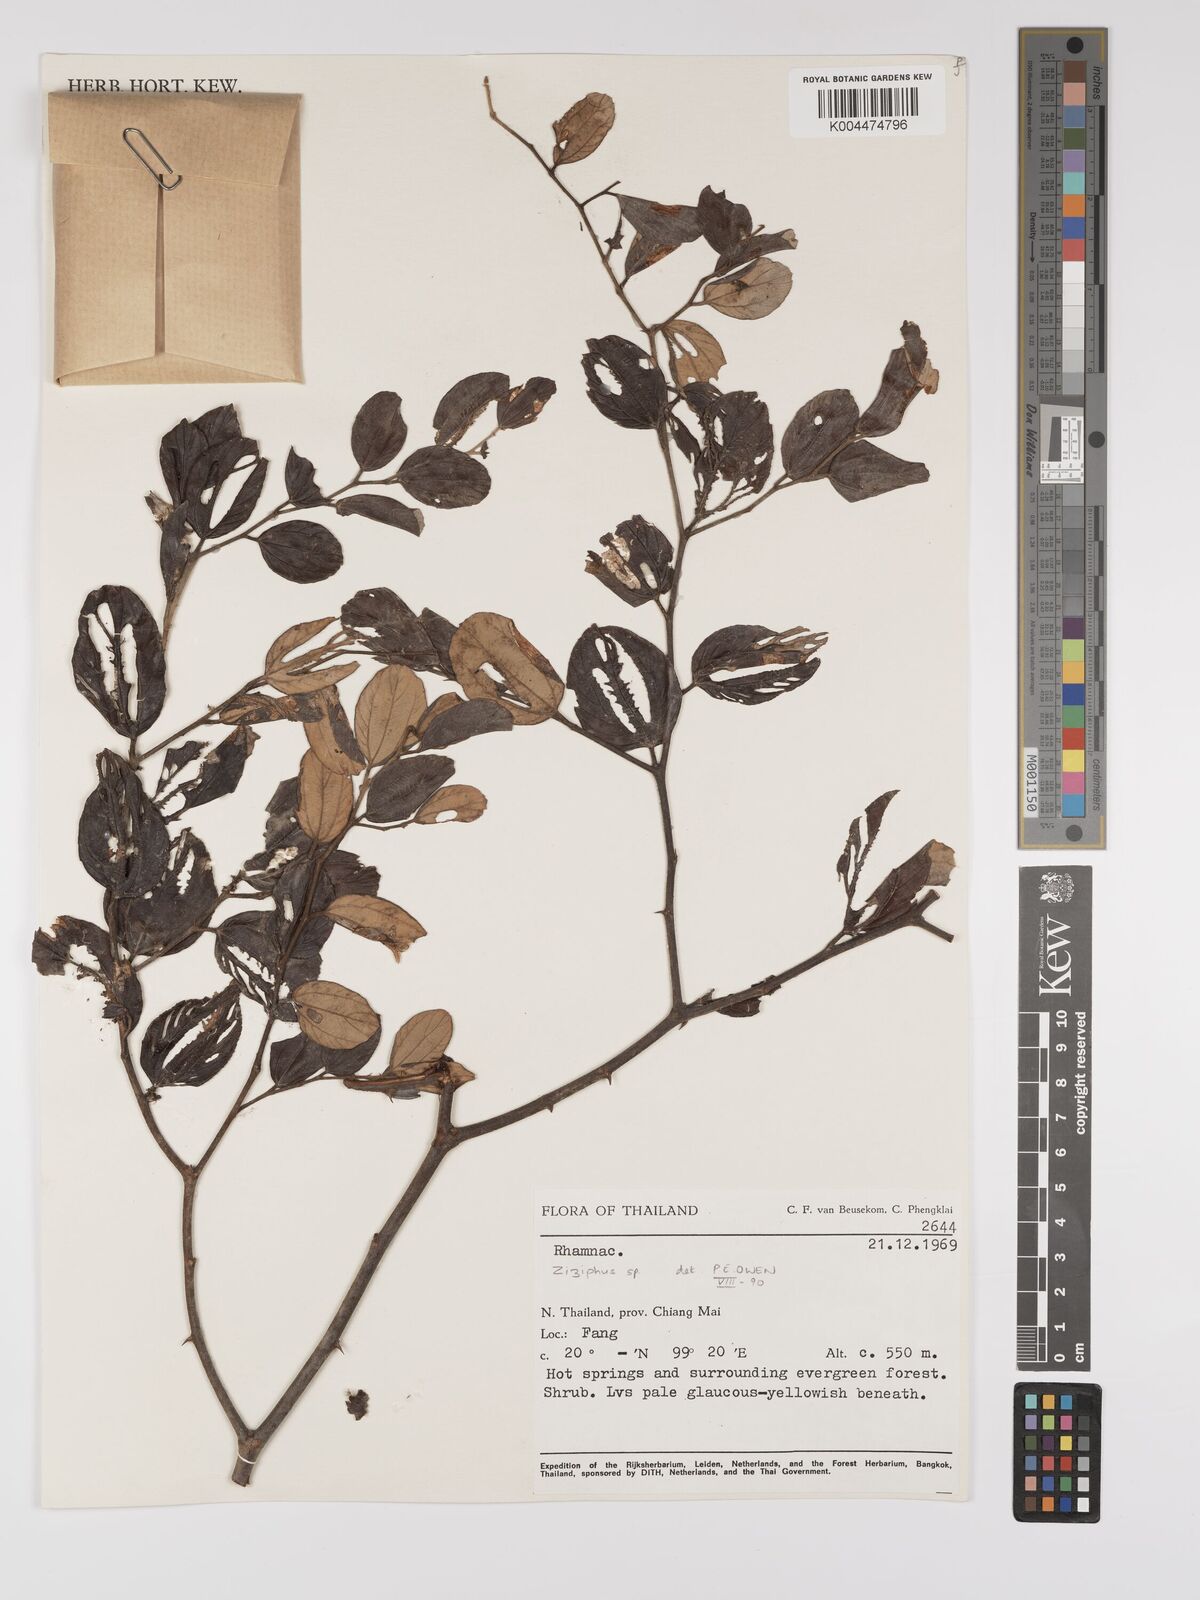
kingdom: Plantae
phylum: Tracheophyta
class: Magnoliopsida
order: Rosales
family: Rhamnaceae
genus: Ziziphus
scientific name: Ziziphus mauritiana
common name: Indian jujube
